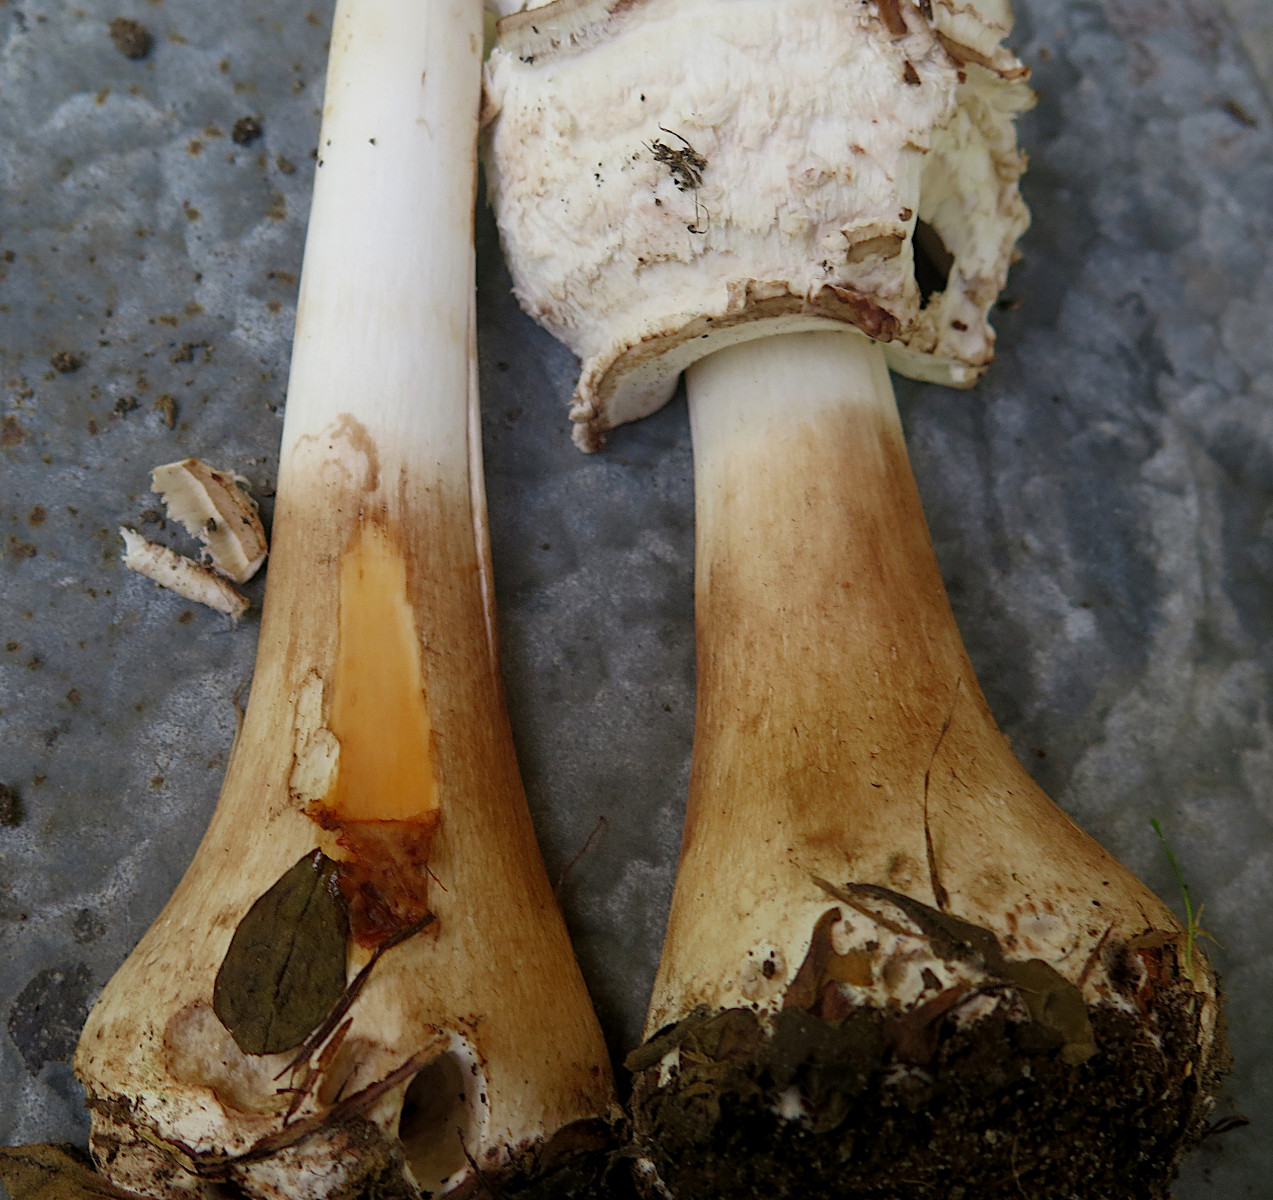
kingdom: Fungi
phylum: Basidiomycota
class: Agaricomycetes
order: Agaricales
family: Agaricaceae
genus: Chlorophyllum
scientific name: Chlorophyllum rhacodes
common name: ægte rabarberhat
